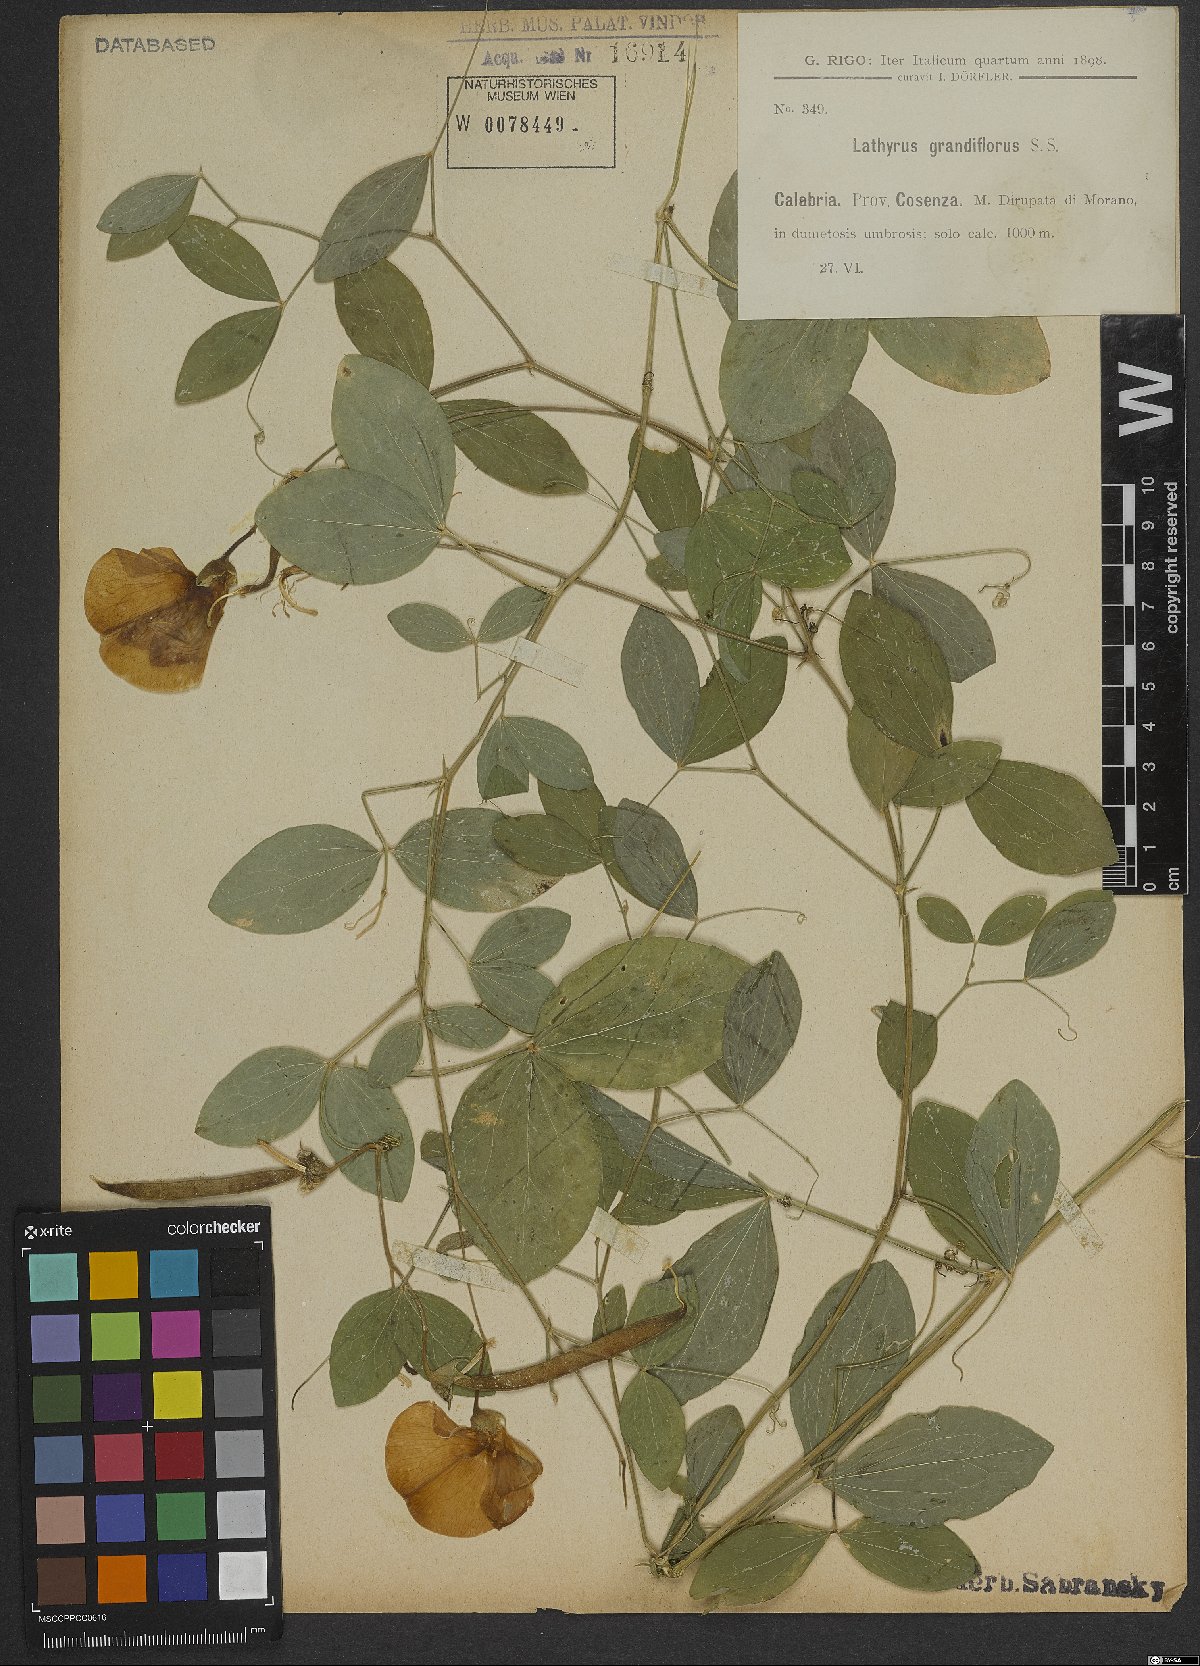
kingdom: Plantae
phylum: Tracheophyta
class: Magnoliopsida
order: Fabales
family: Fabaceae
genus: Lathyrus
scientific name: Lathyrus grandiflorus
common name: Two-flowered everlasting-pea
